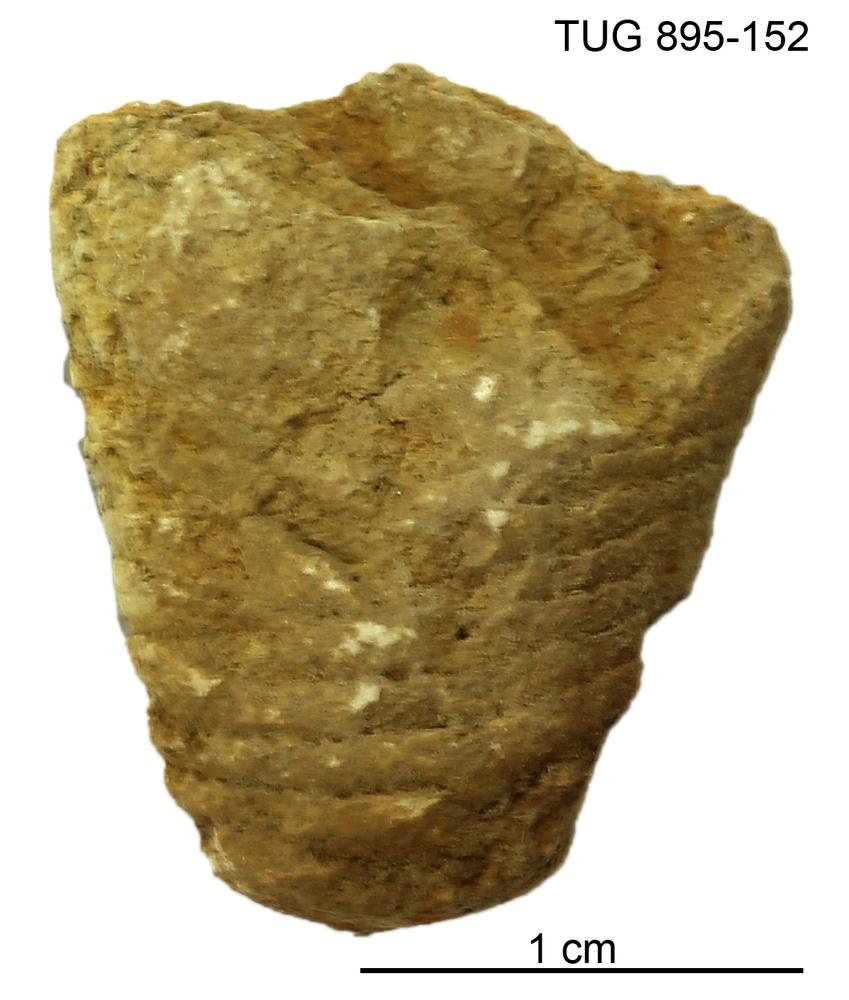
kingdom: Animalia
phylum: Mollusca
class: Cephalopoda
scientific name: Cephalopoda
